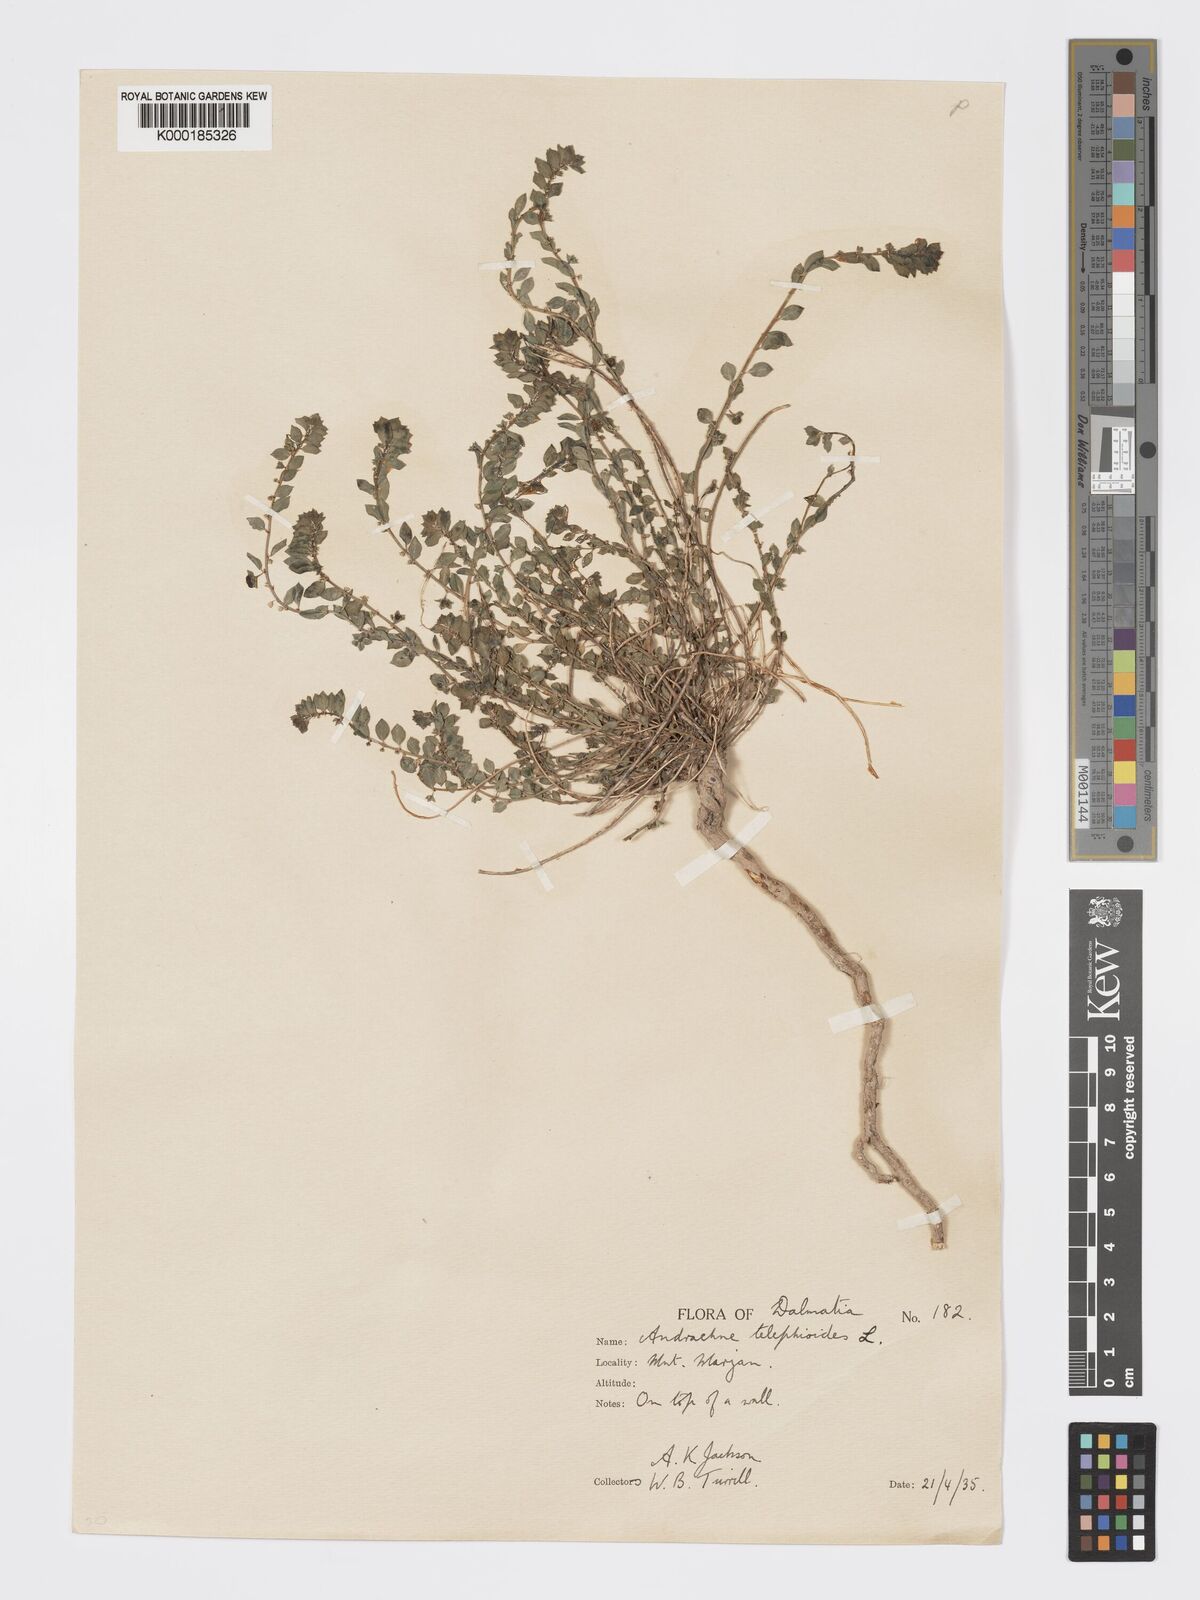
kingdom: Plantae
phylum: Tracheophyta
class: Magnoliopsida
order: Malpighiales
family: Phyllanthaceae
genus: Andrachne
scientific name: Andrachne telephioides
